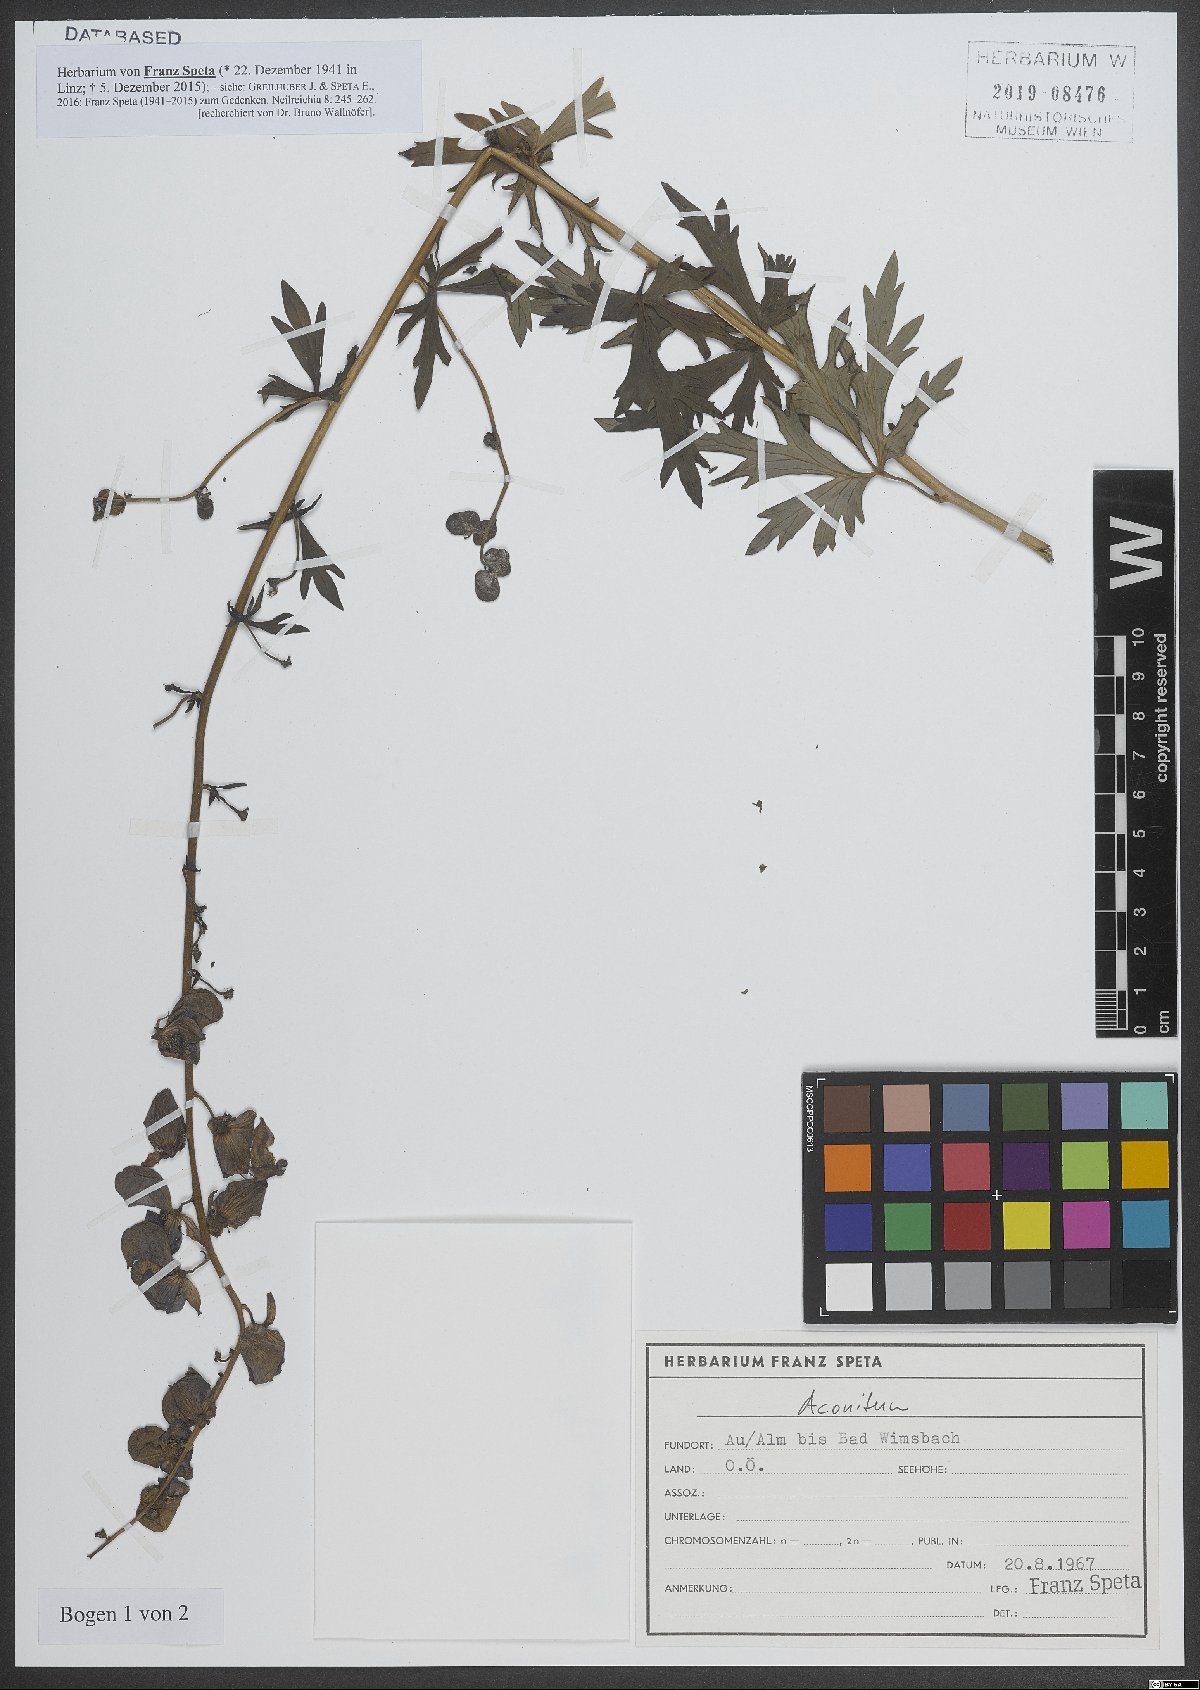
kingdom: Plantae
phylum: Tracheophyta
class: Magnoliopsida
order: Ranunculales
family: Ranunculaceae
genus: Aconitum
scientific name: Aconitum
